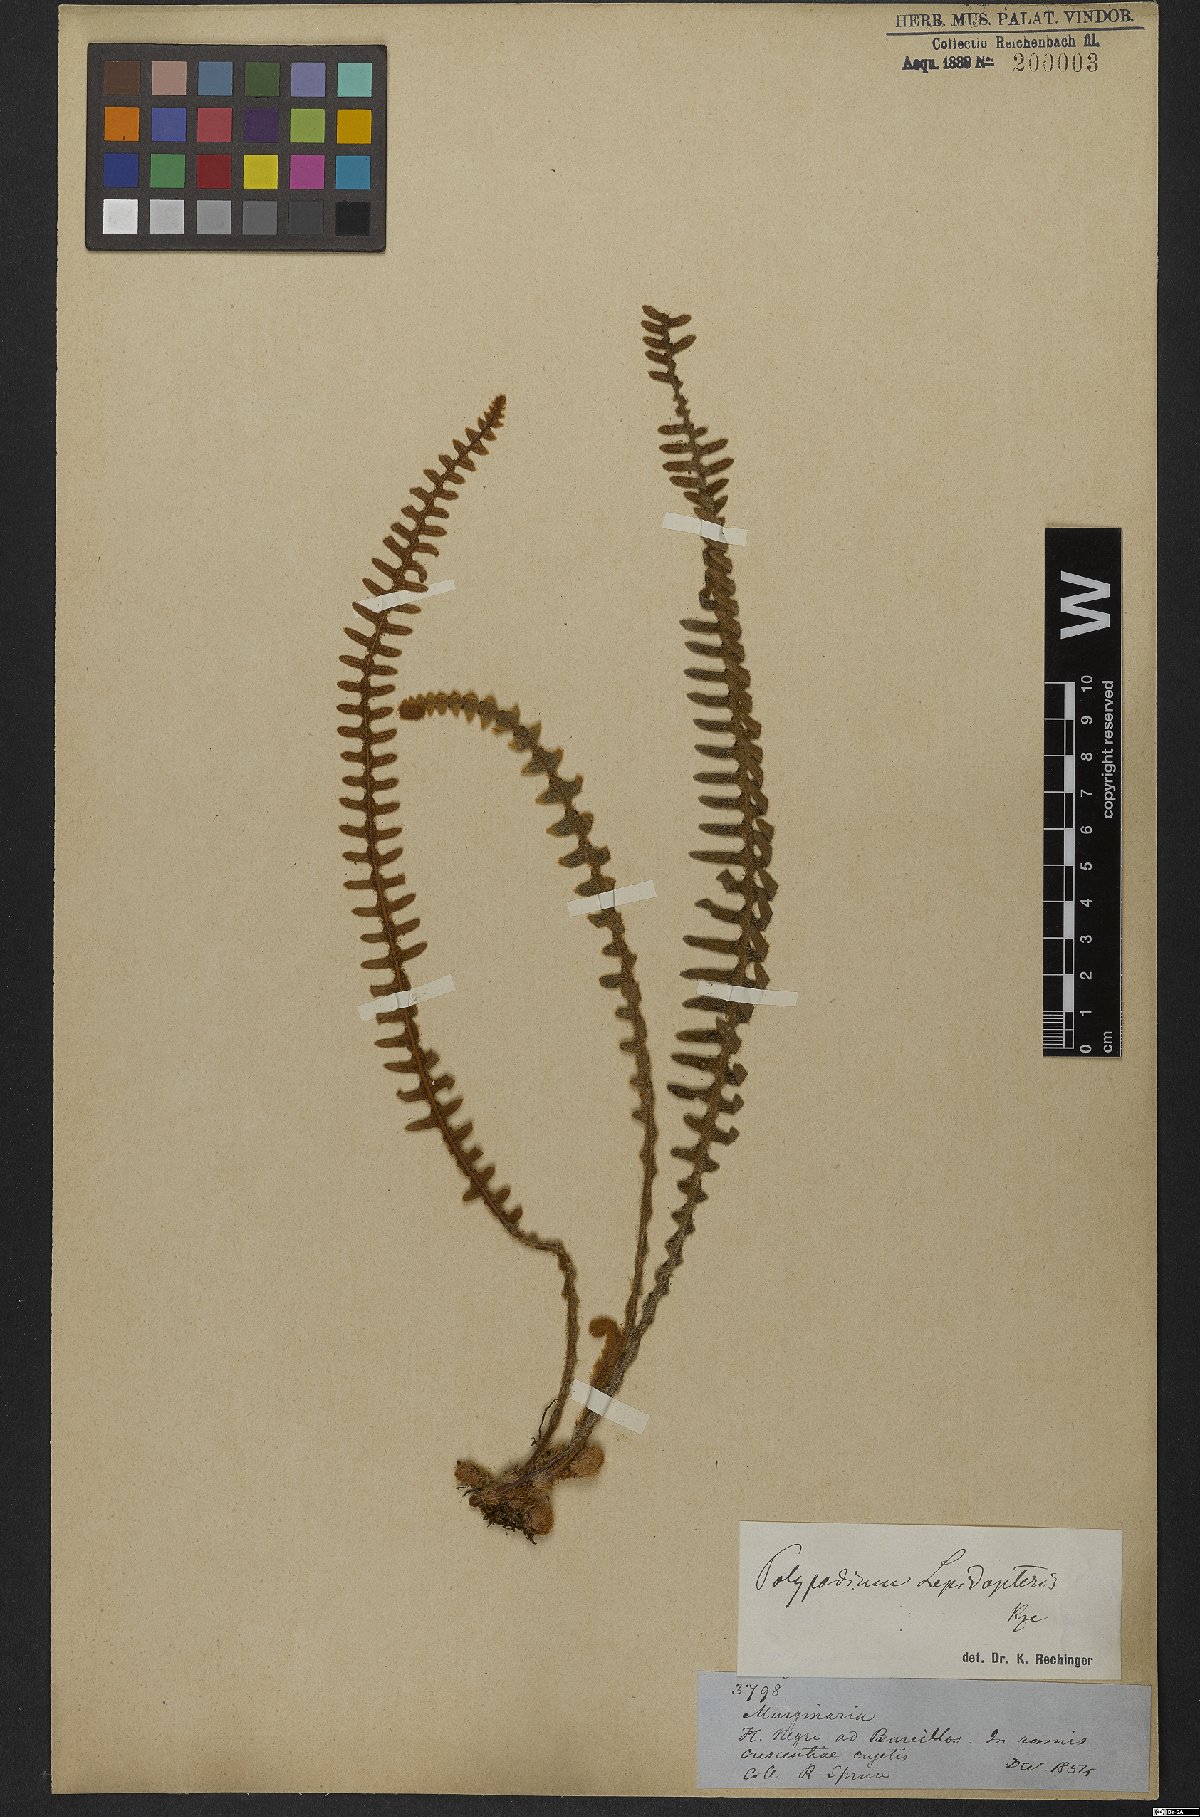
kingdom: Plantae
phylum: Tracheophyta
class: Polypodiopsida
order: Polypodiales
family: Polypodiaceae
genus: Pleopeltis
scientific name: Pleopeltis lepidopteris
